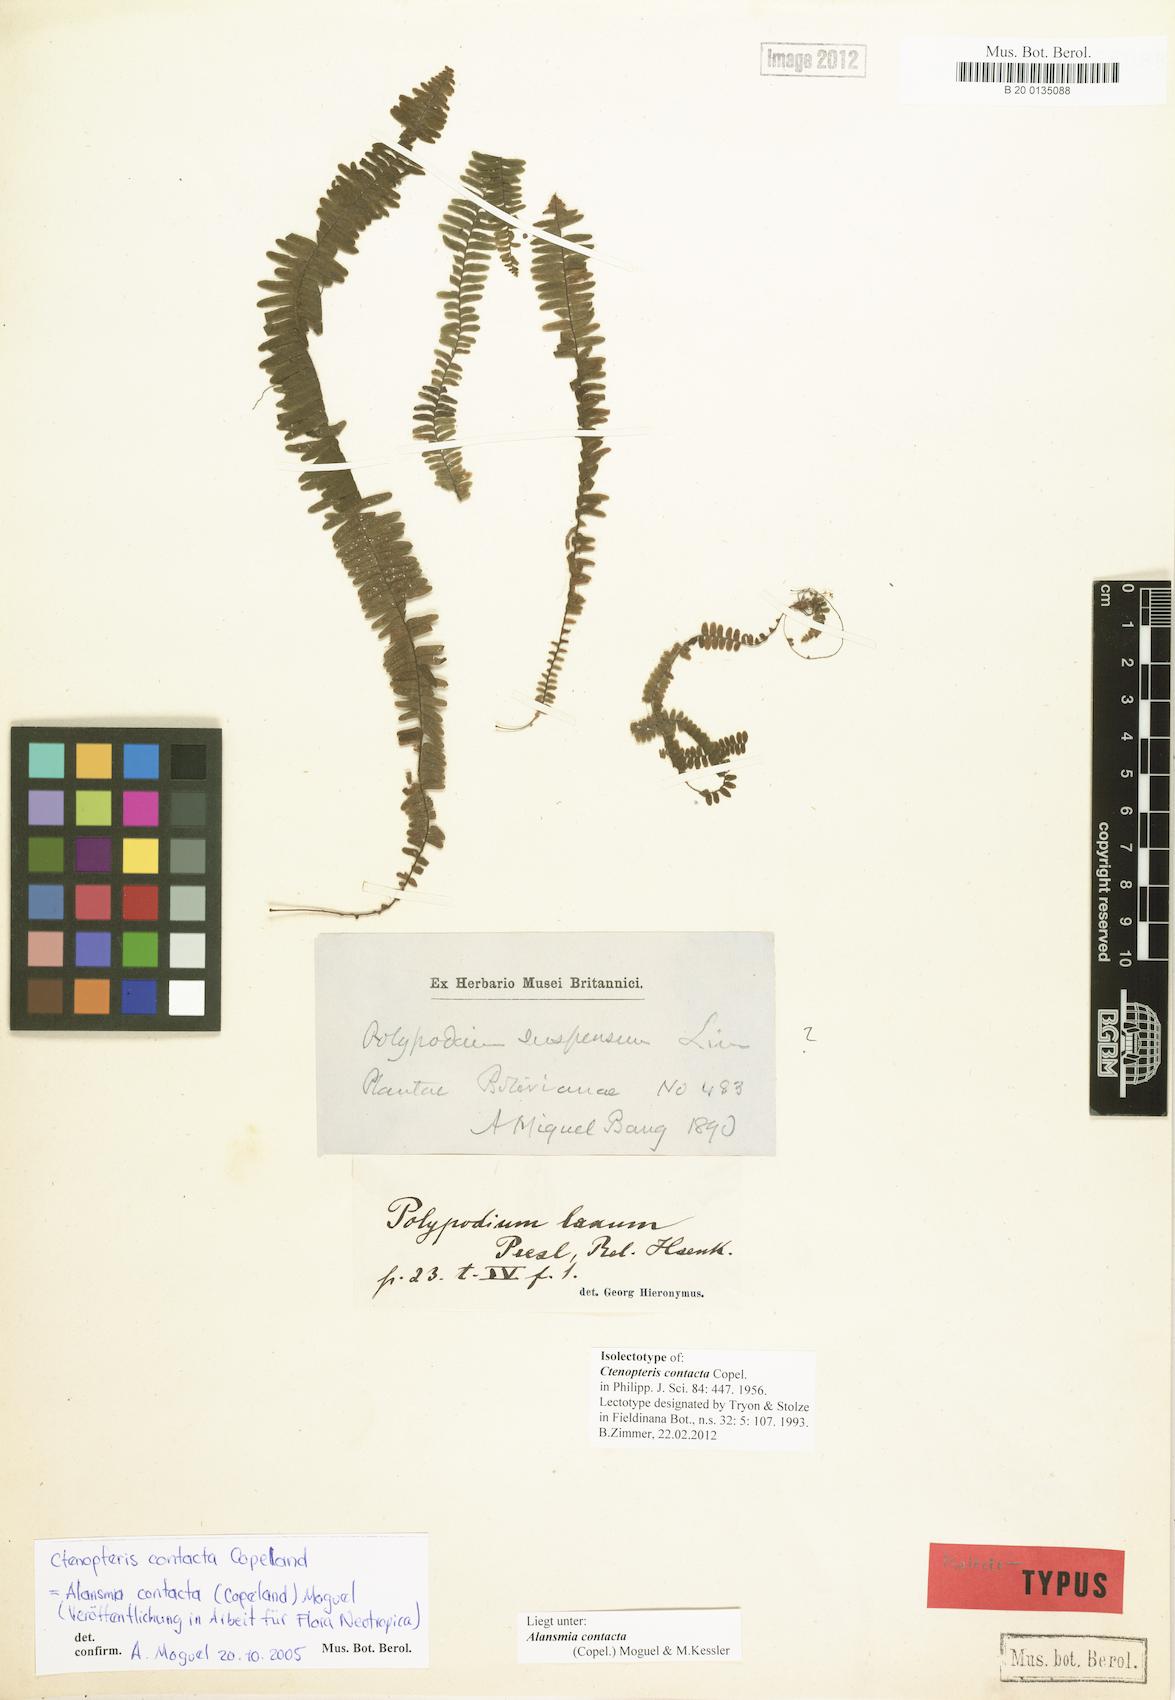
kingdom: Plantae
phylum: Tracheophyta
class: Polypodiopsida
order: Polypodiales
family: Polypodiaceae
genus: Alansmia
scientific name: Alansmia contacta
